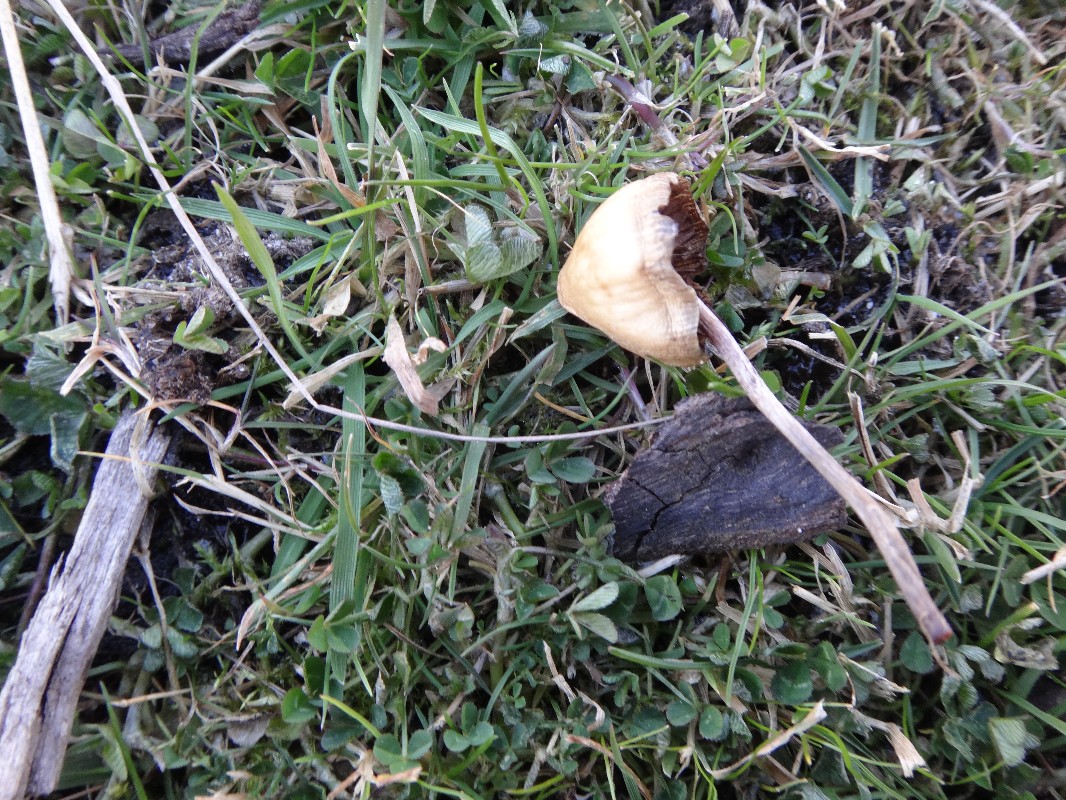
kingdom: Fungi
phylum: Basidiomycota
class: Agaricomycetes
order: Agaricales
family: Hymenogastraceae
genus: Psilocybe
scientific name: Psilocybe semilanceata
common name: spids nøgenhat
